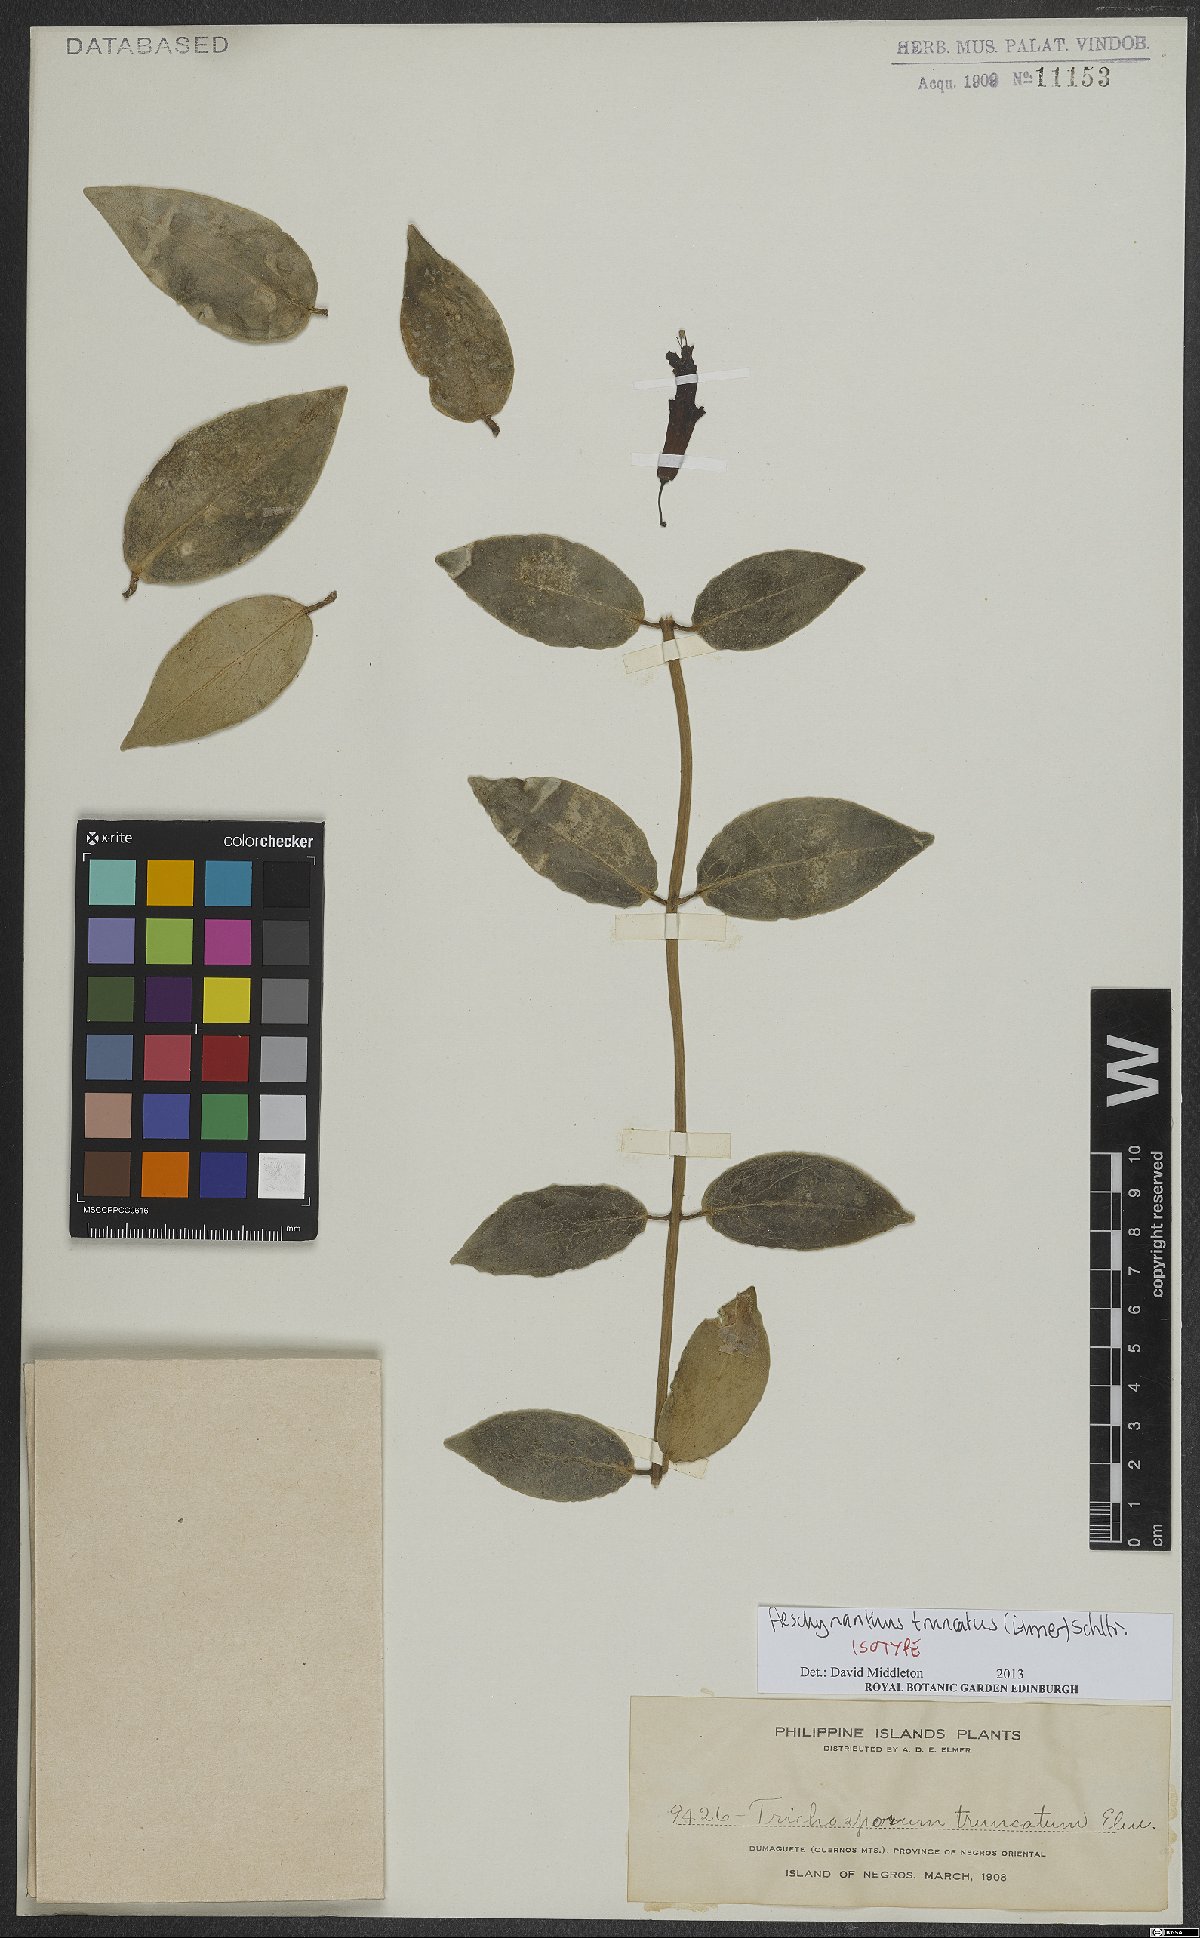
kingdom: Plantae
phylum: Tracheophyta
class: Magnoliopsida
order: Lamiales
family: Gesneriaceae
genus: Aeschynanthus
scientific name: Aeschynanthus truncatus
